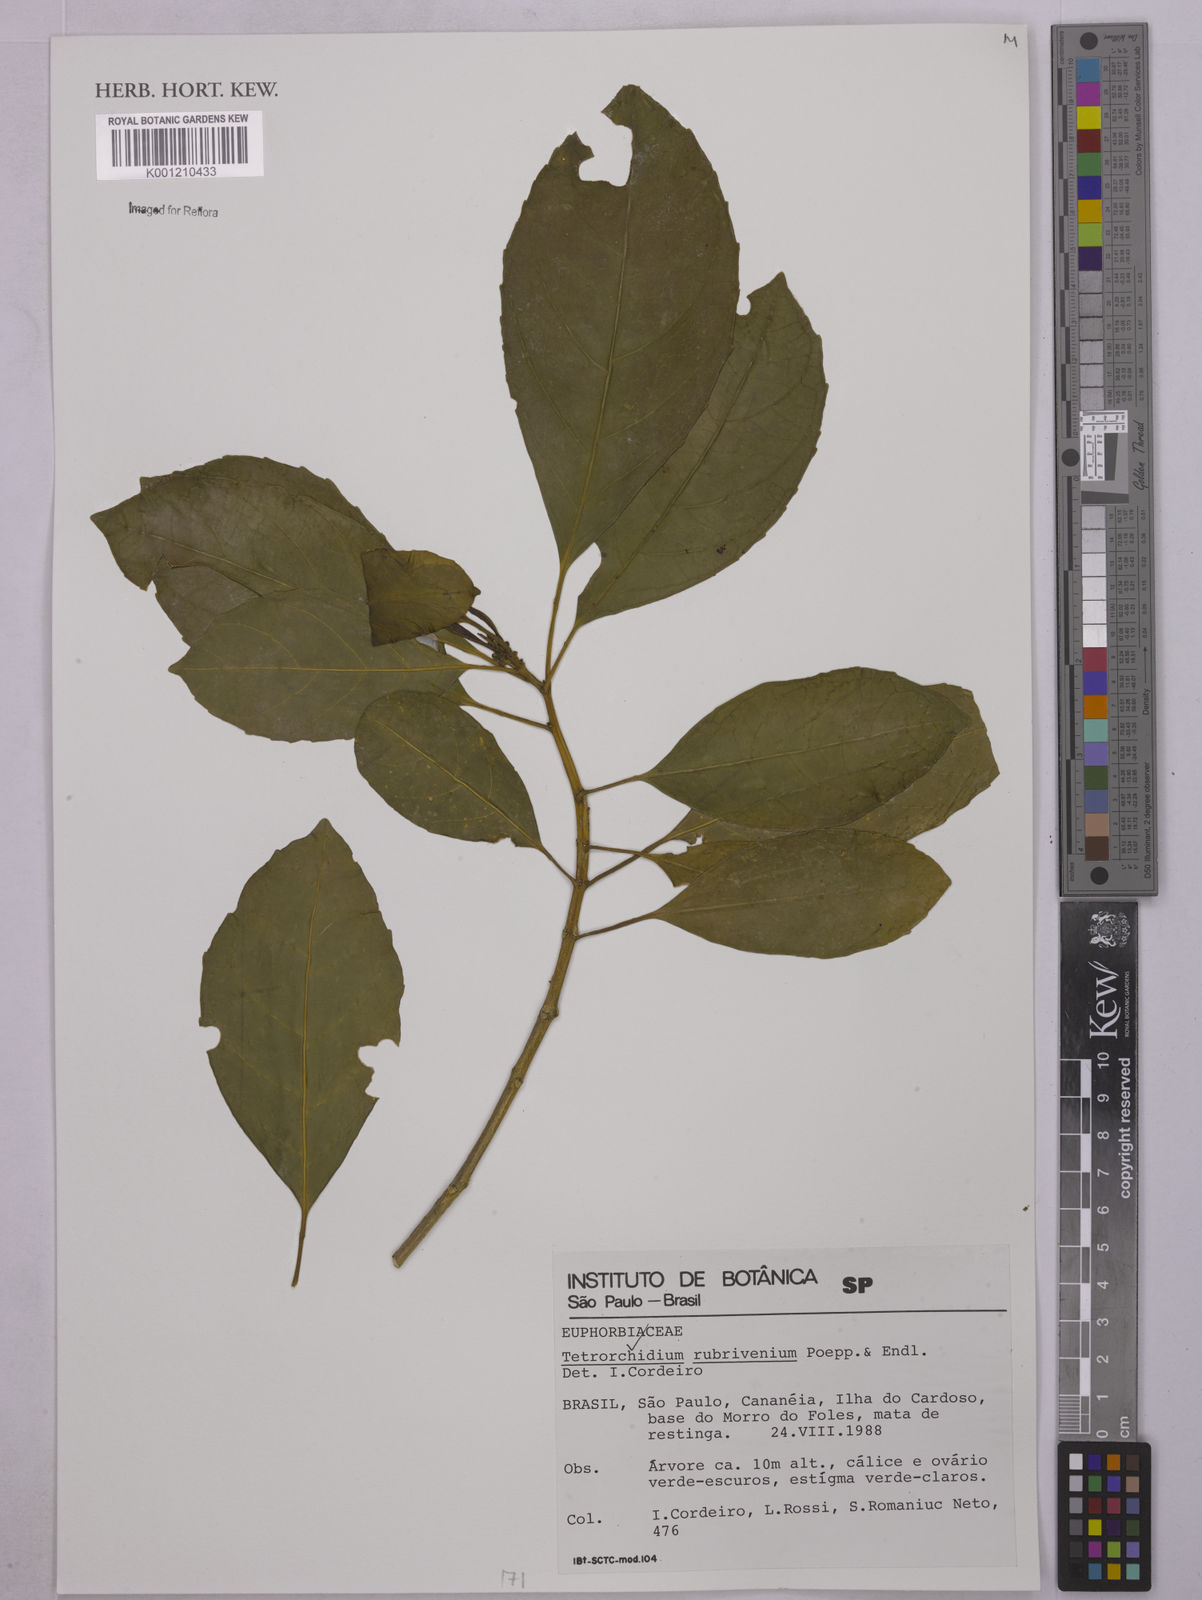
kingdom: Plantae
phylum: Tracheophyta
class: Magnoliopsida
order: Malpighiales
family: Euphorbiaceae
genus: Tetrorchidium
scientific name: Tetrorchidium rubrivenium
